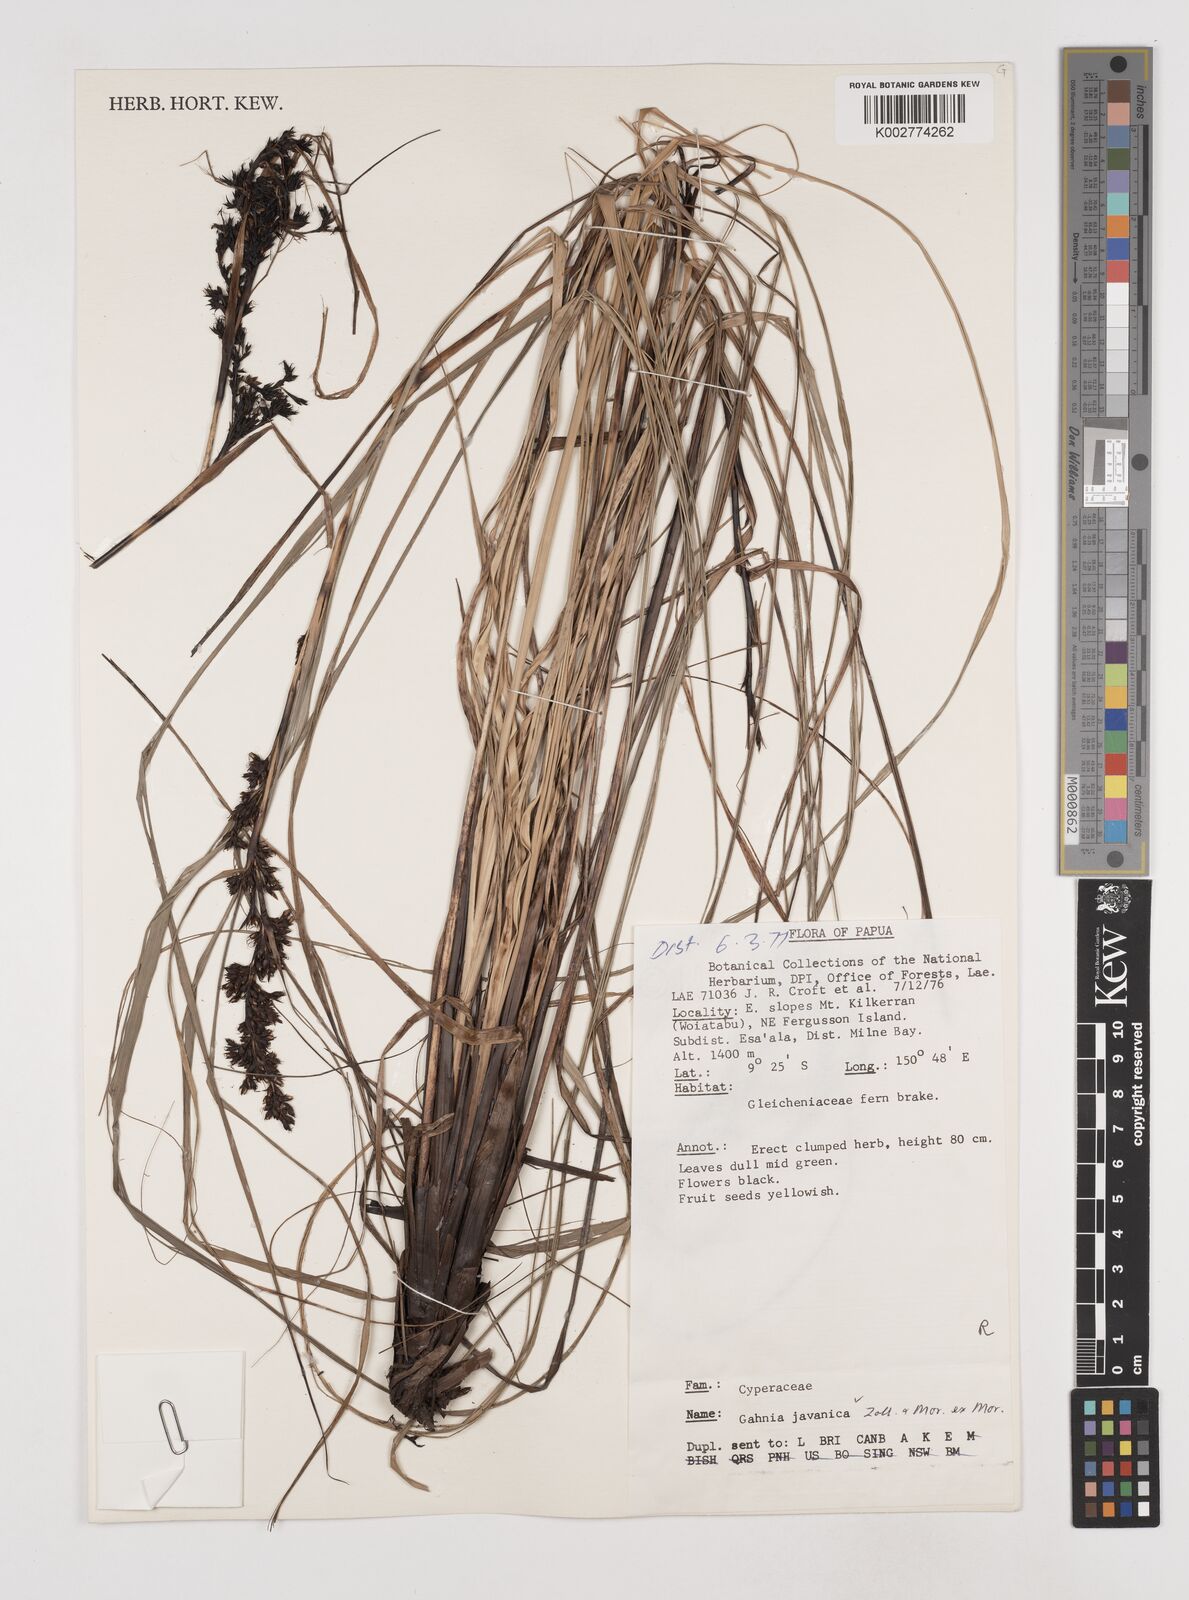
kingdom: Plantae
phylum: Tracheophyta
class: Liliopsida
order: Poales
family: Cyperaceae
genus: Gahnia
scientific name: Gahnia javanica
